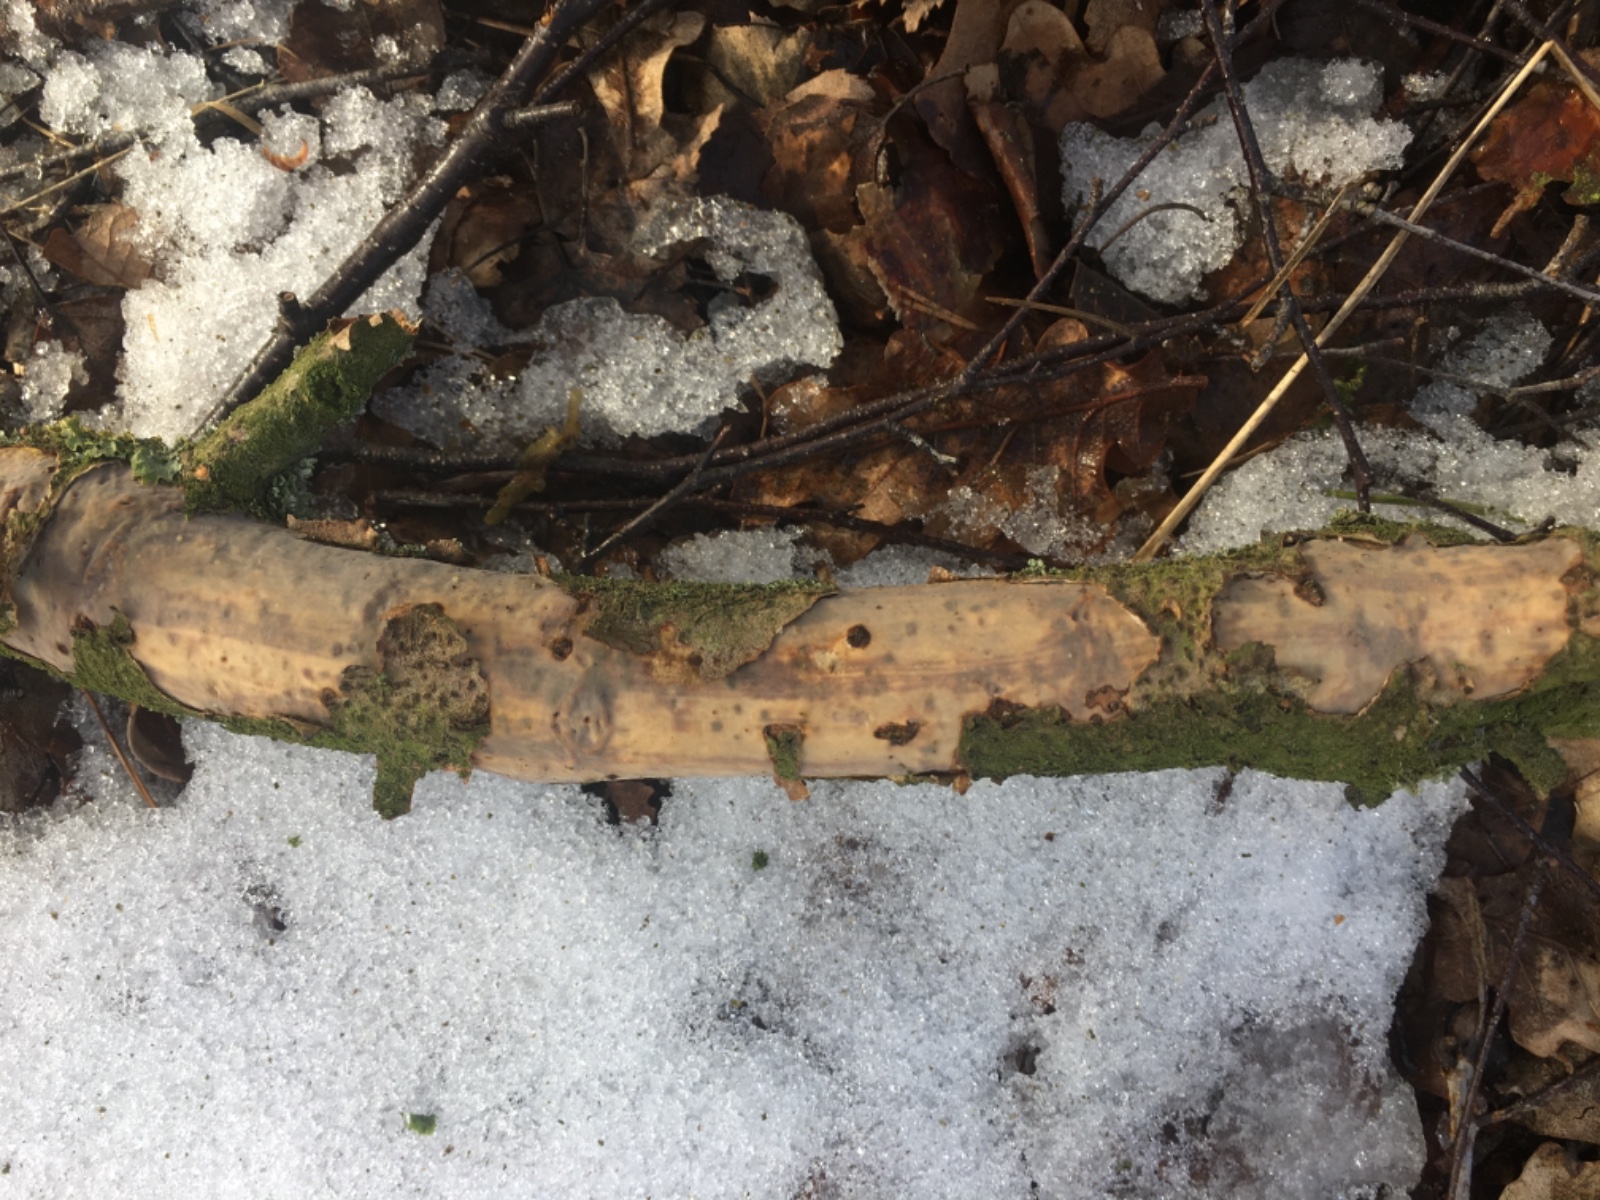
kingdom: Fungi
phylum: Basidiomycota
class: Agaricomycetes
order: Corticiales
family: Vuilleminiaceae
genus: Vuilleminia
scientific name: Vuilleminia comedens
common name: almindelig barksprænger
